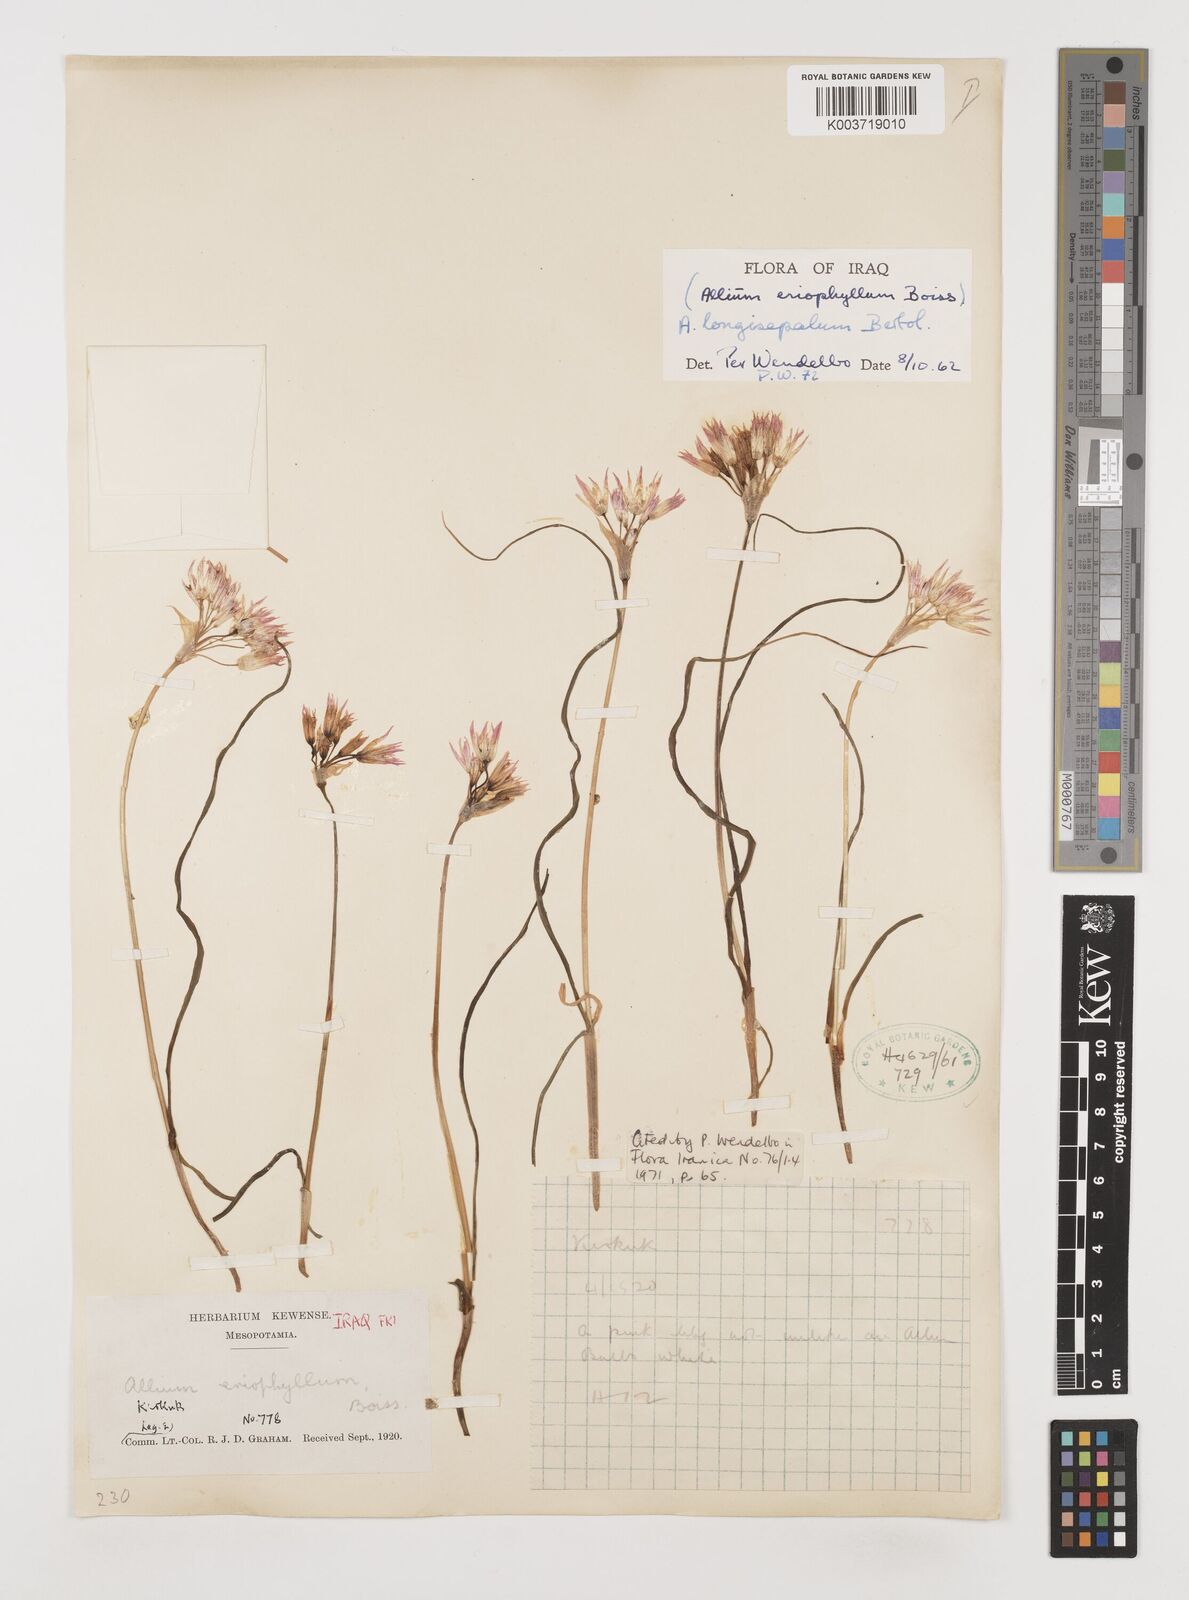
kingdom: Plantae
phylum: Tracheophyta
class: Liliopsida
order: Asparagales
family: Amaryllidaceae
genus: Allium
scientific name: Allium longisepalum
